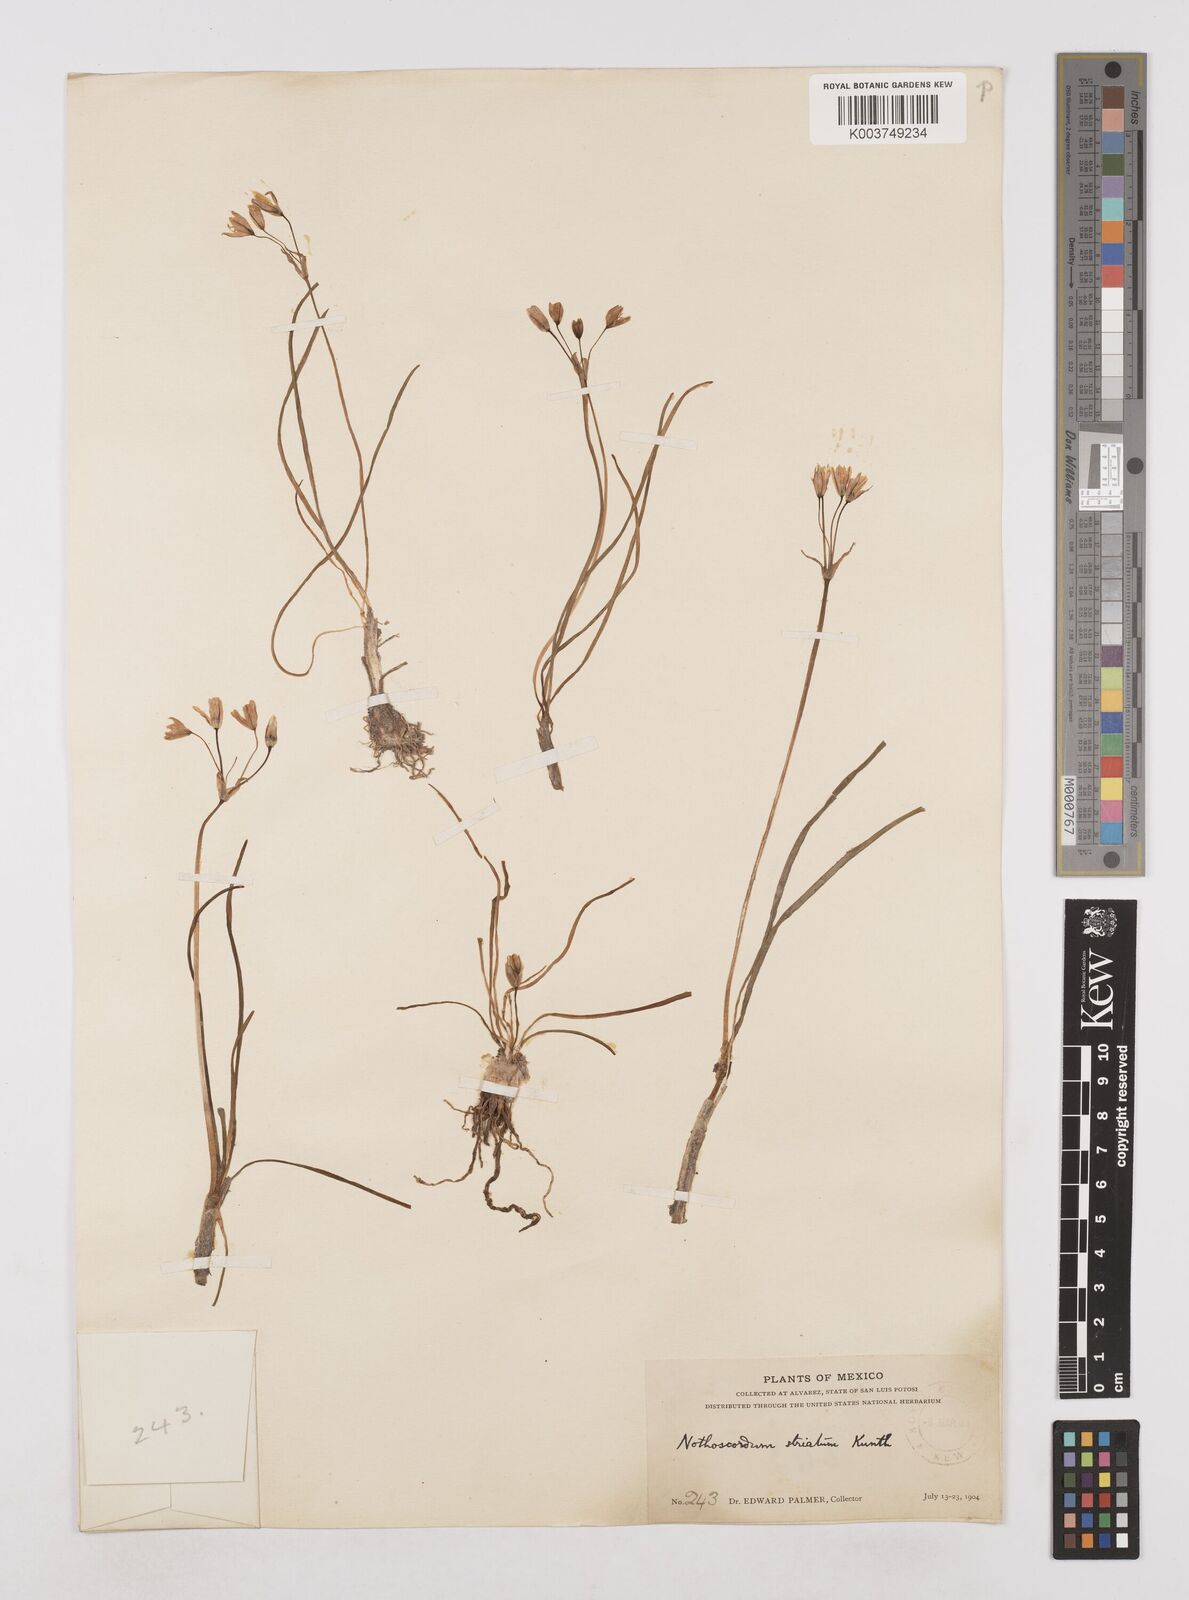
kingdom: Plantae
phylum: Tracheophyta
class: Liliopsida
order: Asparagales
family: Amaryllidaceae
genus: Nothoscordum
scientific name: Nothoscordum bivalve
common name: Crow-poison
